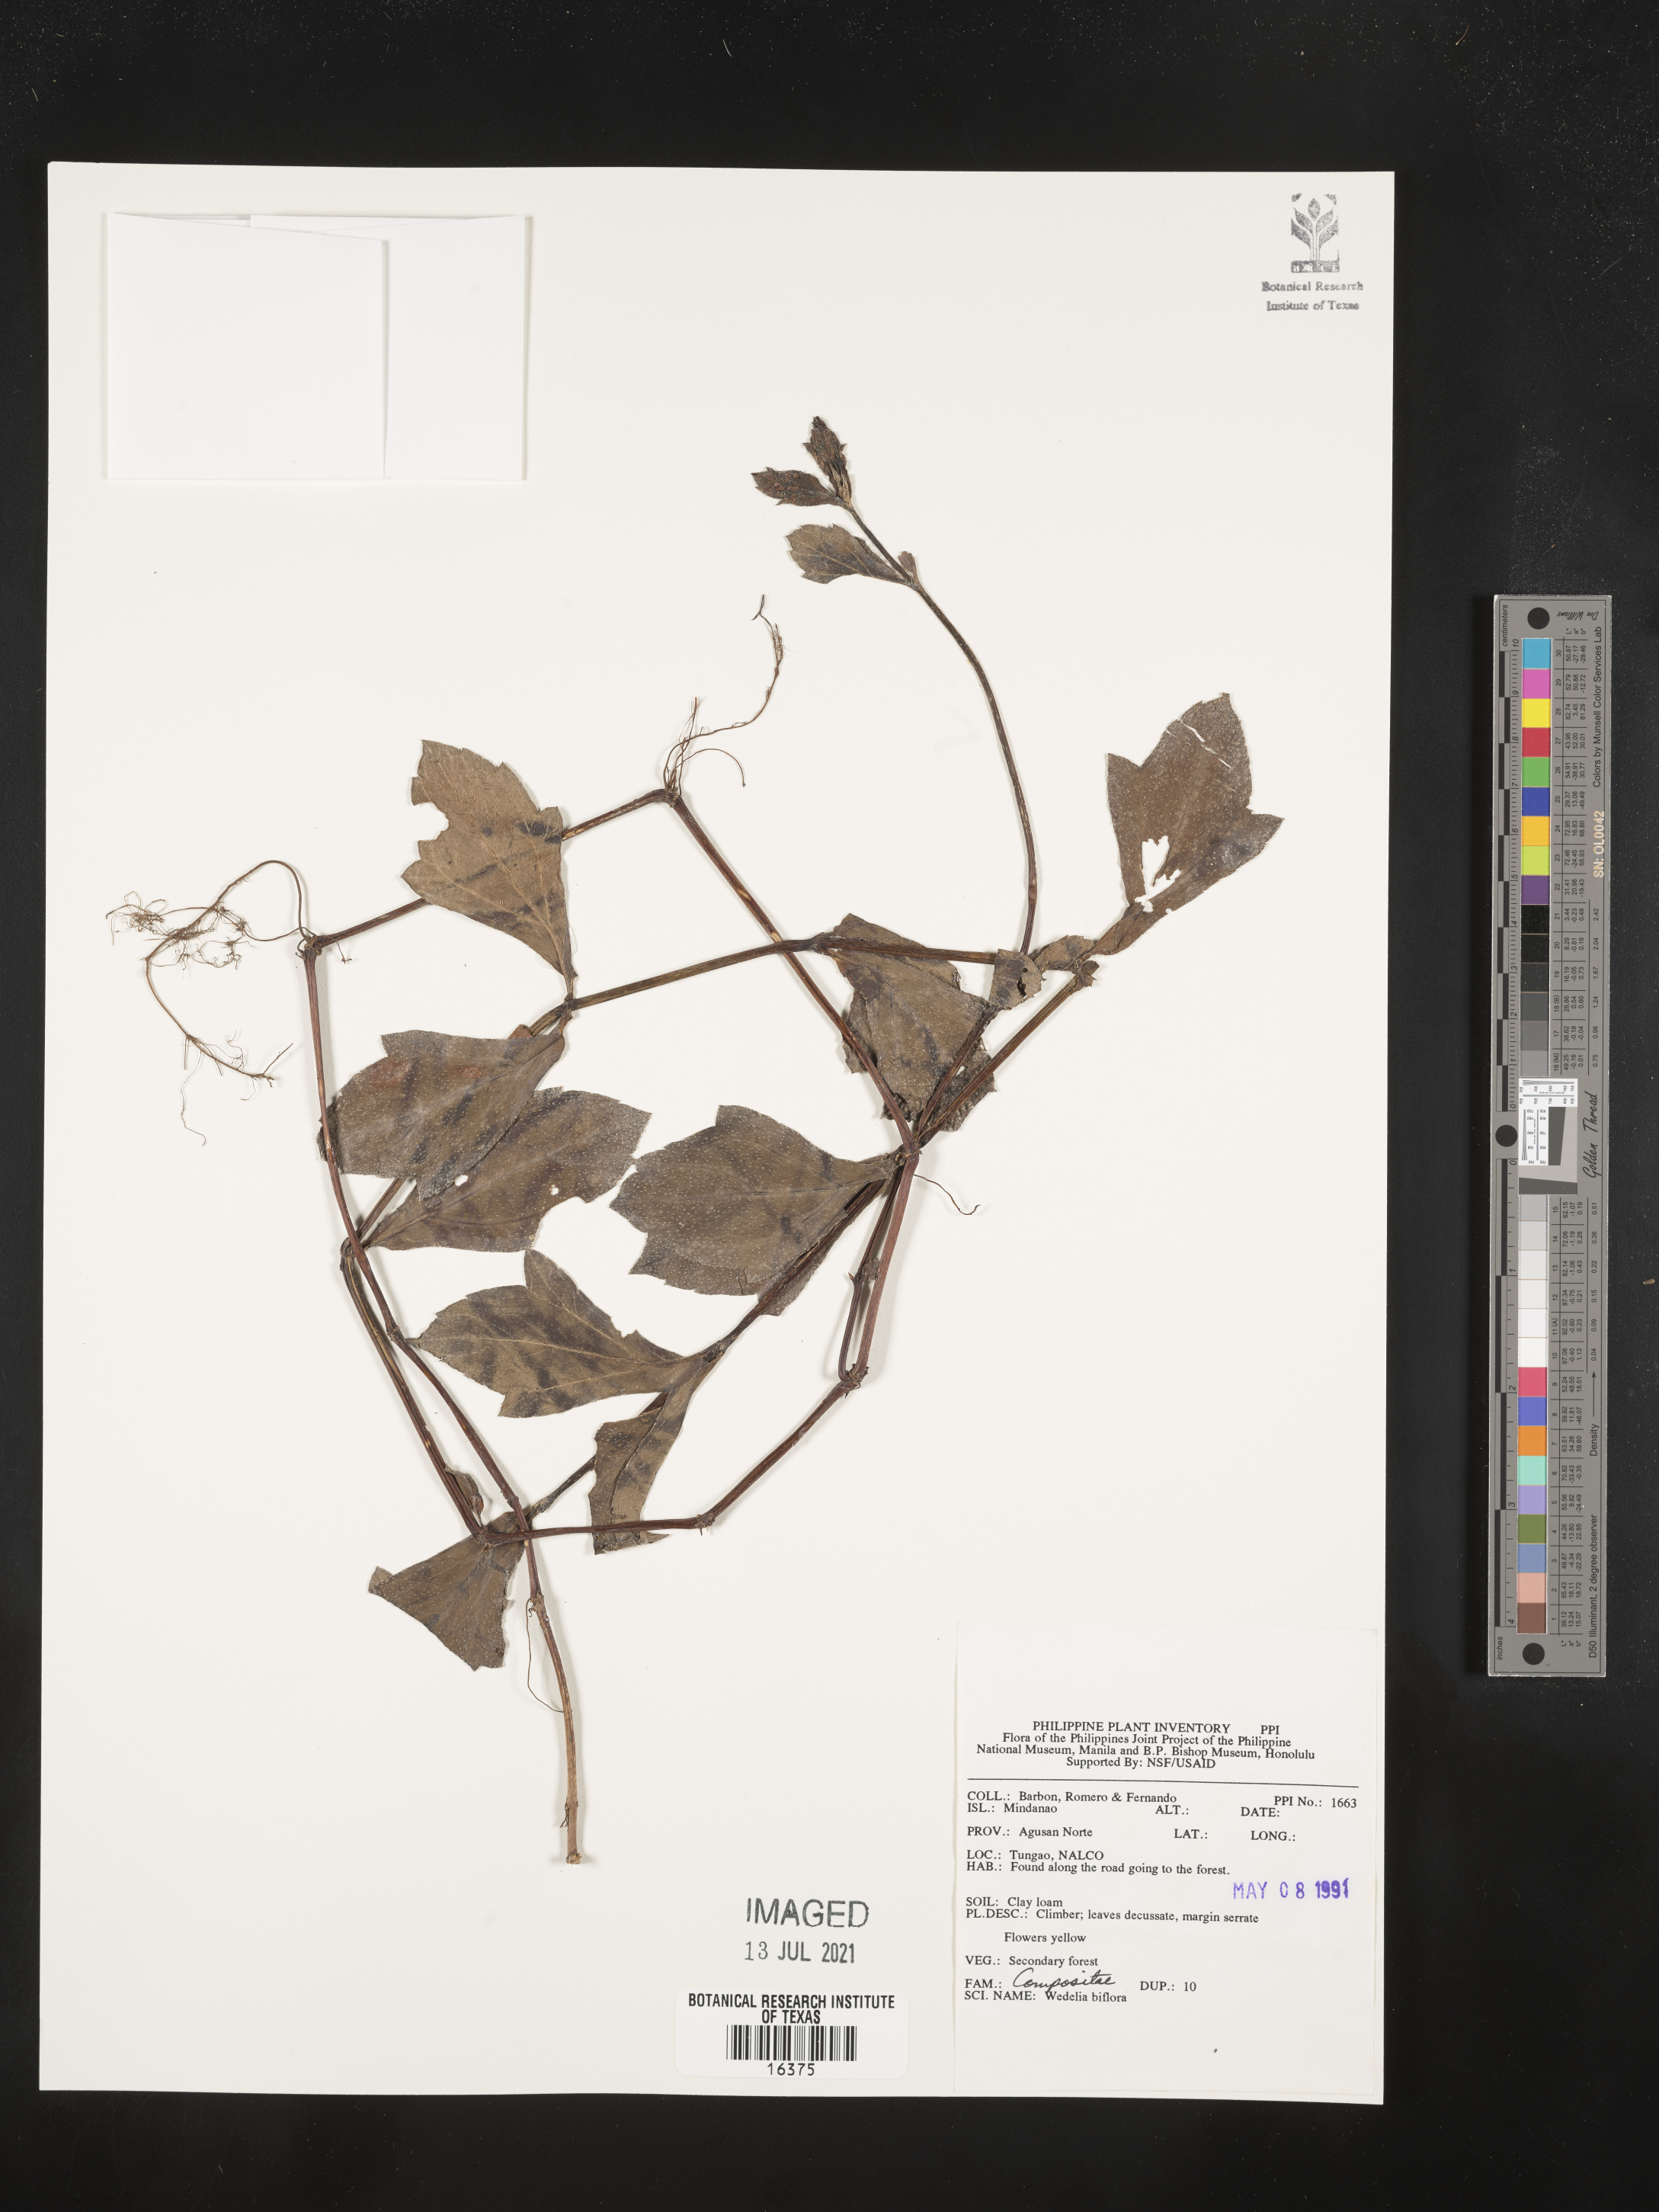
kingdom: Plantae
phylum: Tracheophyta
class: Magnoliopsida
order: Asterales
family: Asteraceae
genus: Wollastonia
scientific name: Wollastonia biflora
